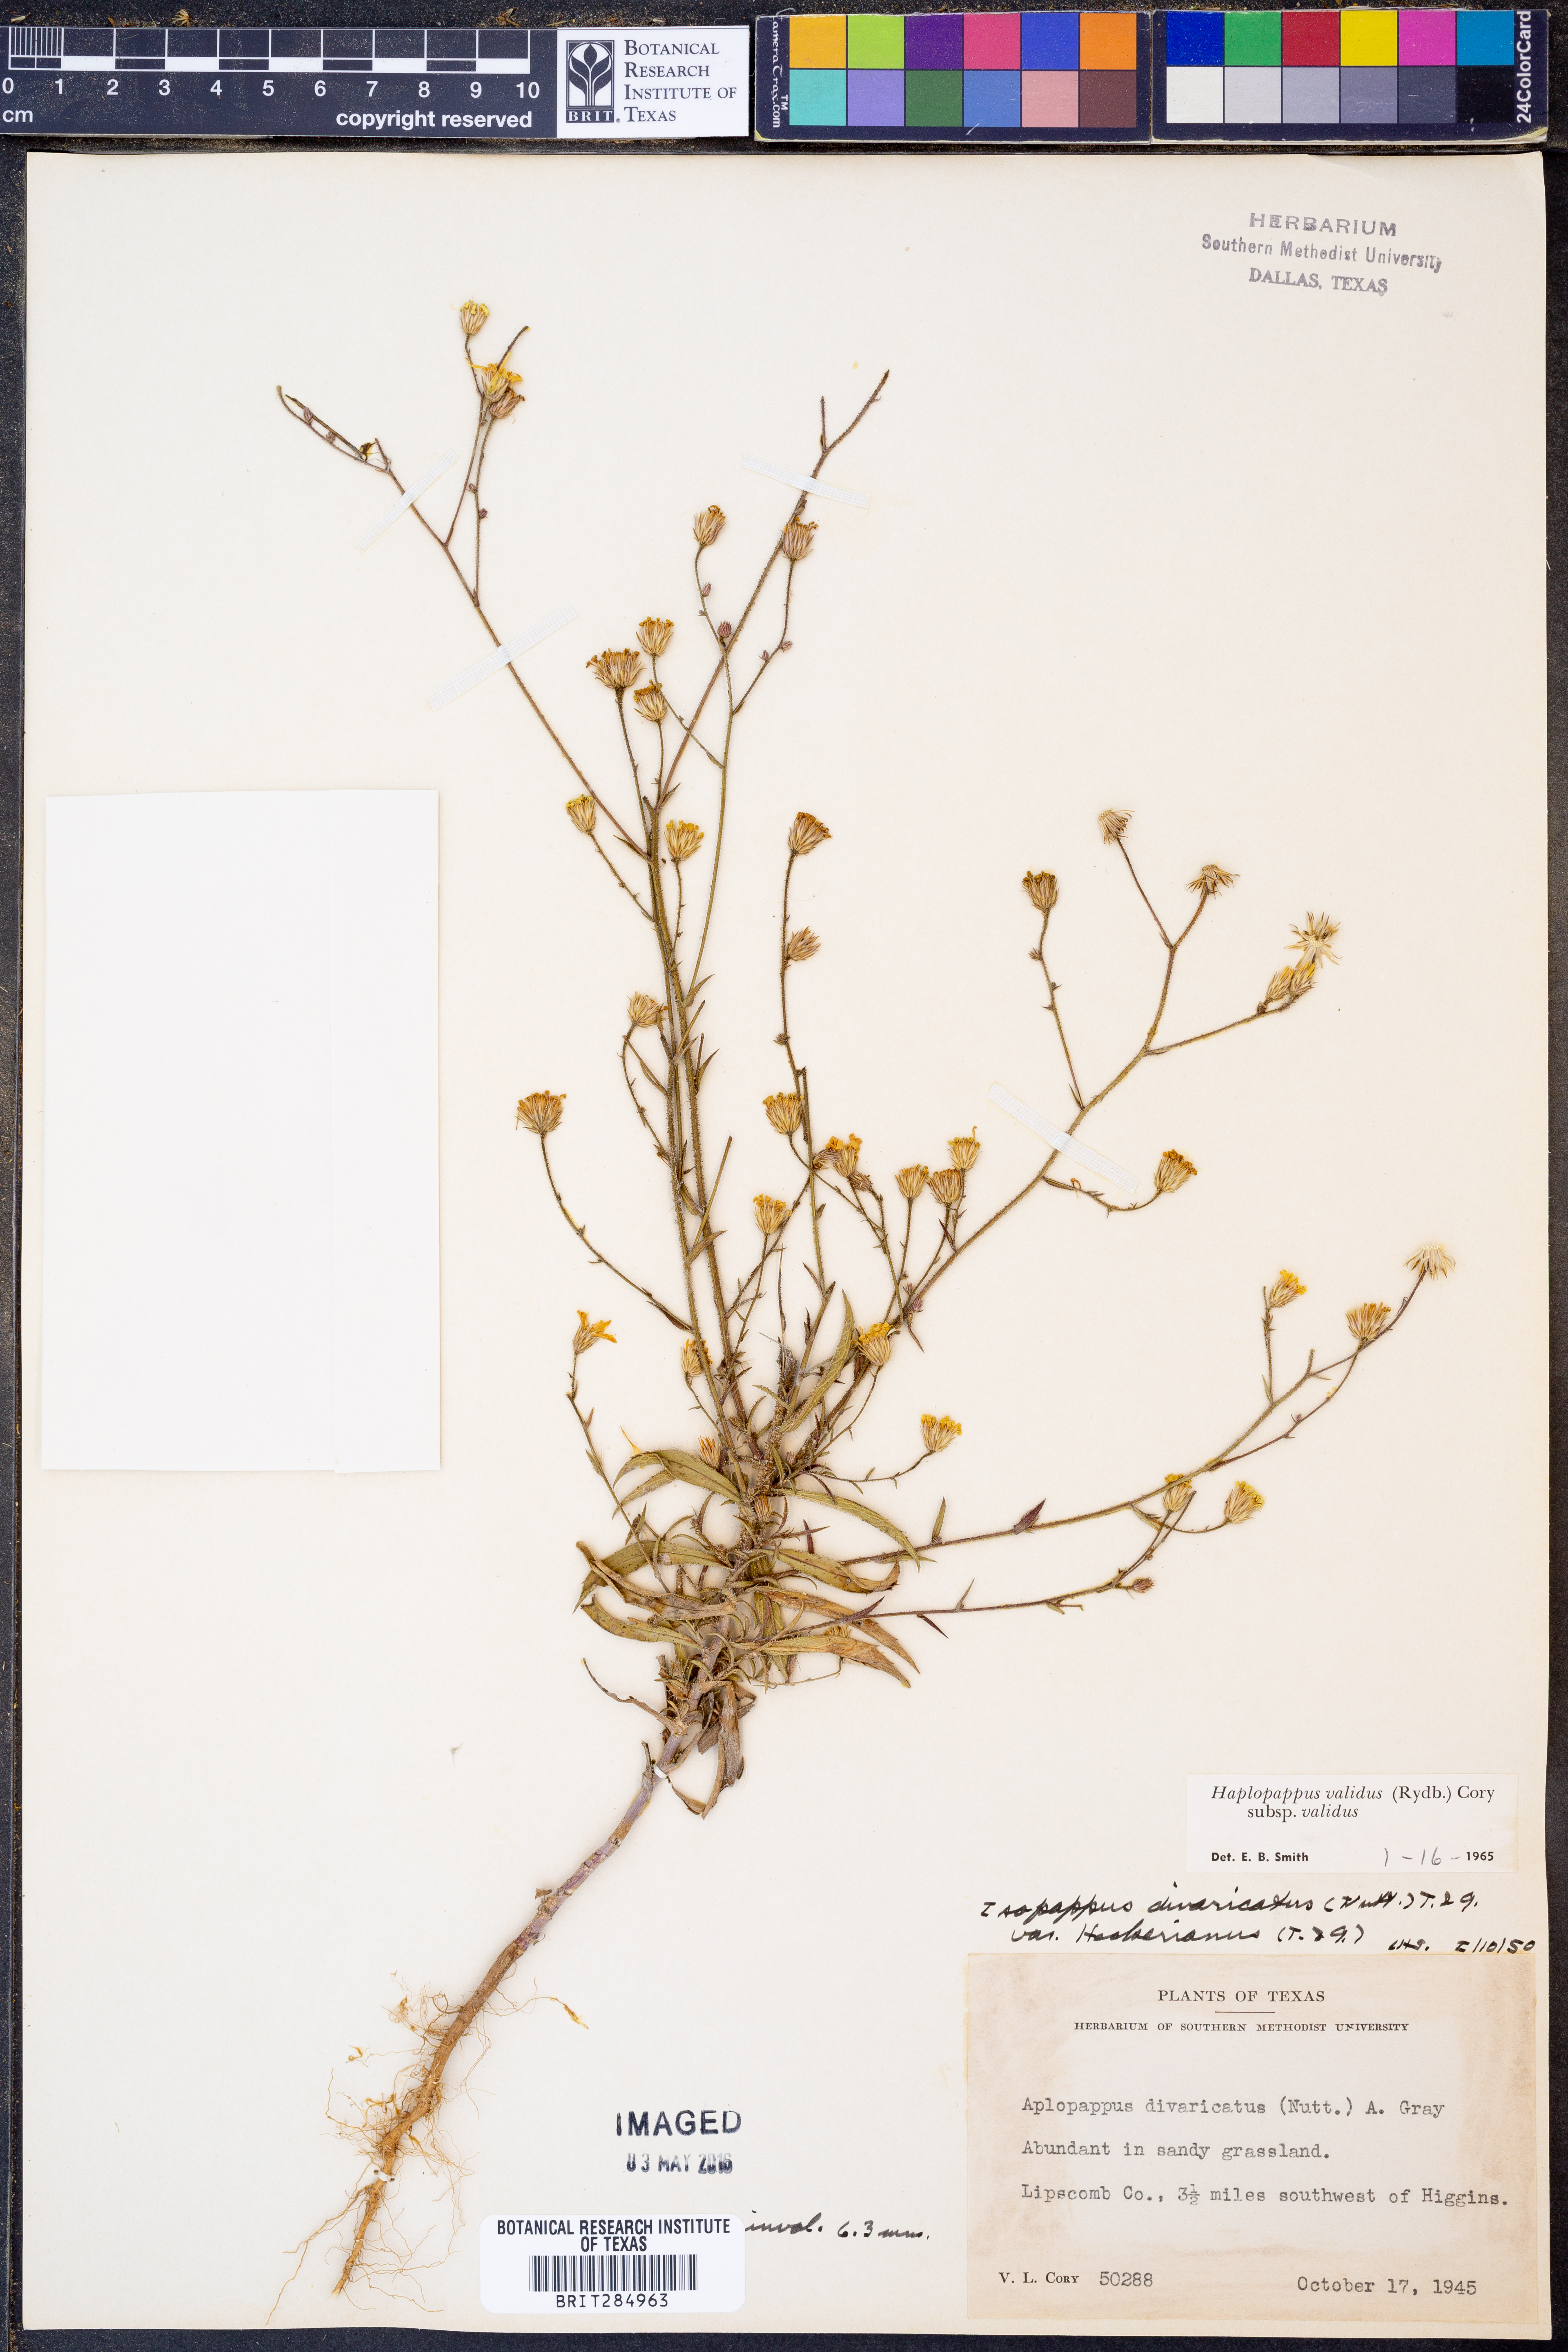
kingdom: Plantae
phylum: Tracheophyta
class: Magnoliopsida
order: Asterales
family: Asteraceae
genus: Croptilon
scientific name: Croptilon hookerianum
